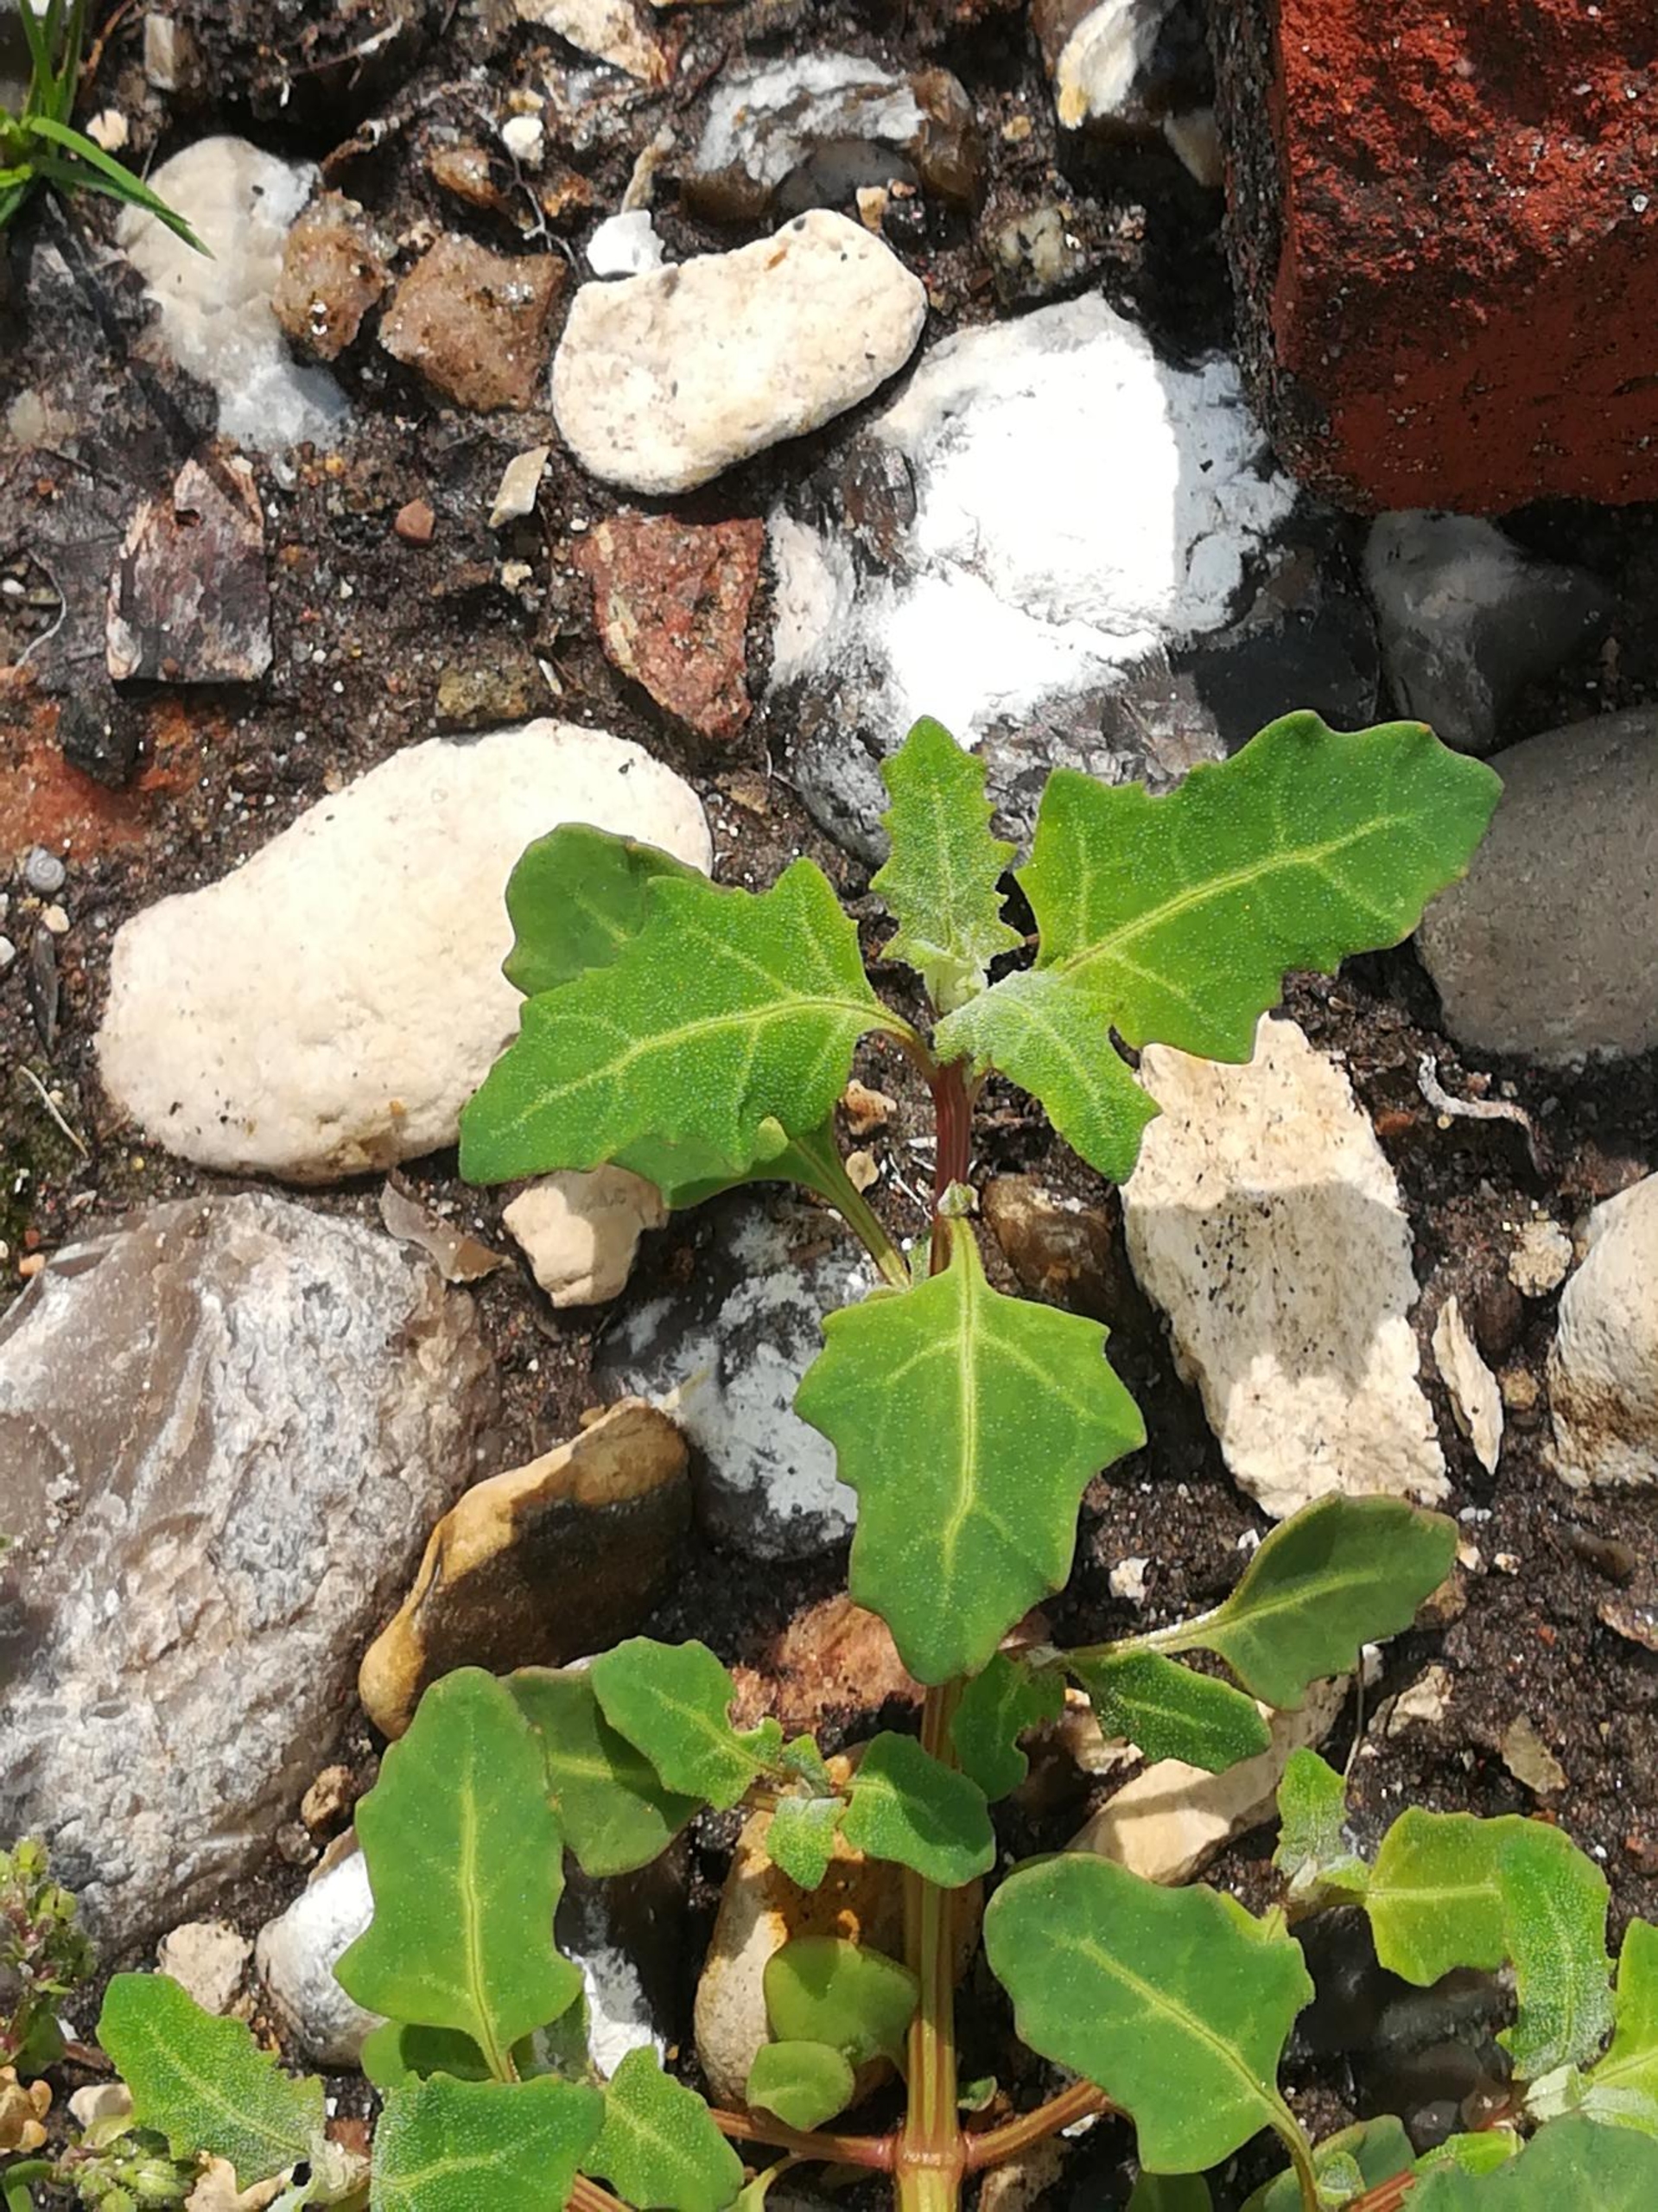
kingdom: Plantae
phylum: Tracheophyta
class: Magnoliopsida
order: Caryophyllales
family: Amaranthaceae
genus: Oxybasis
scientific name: Oxybasis glauca
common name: Blågrøn gåsefod
